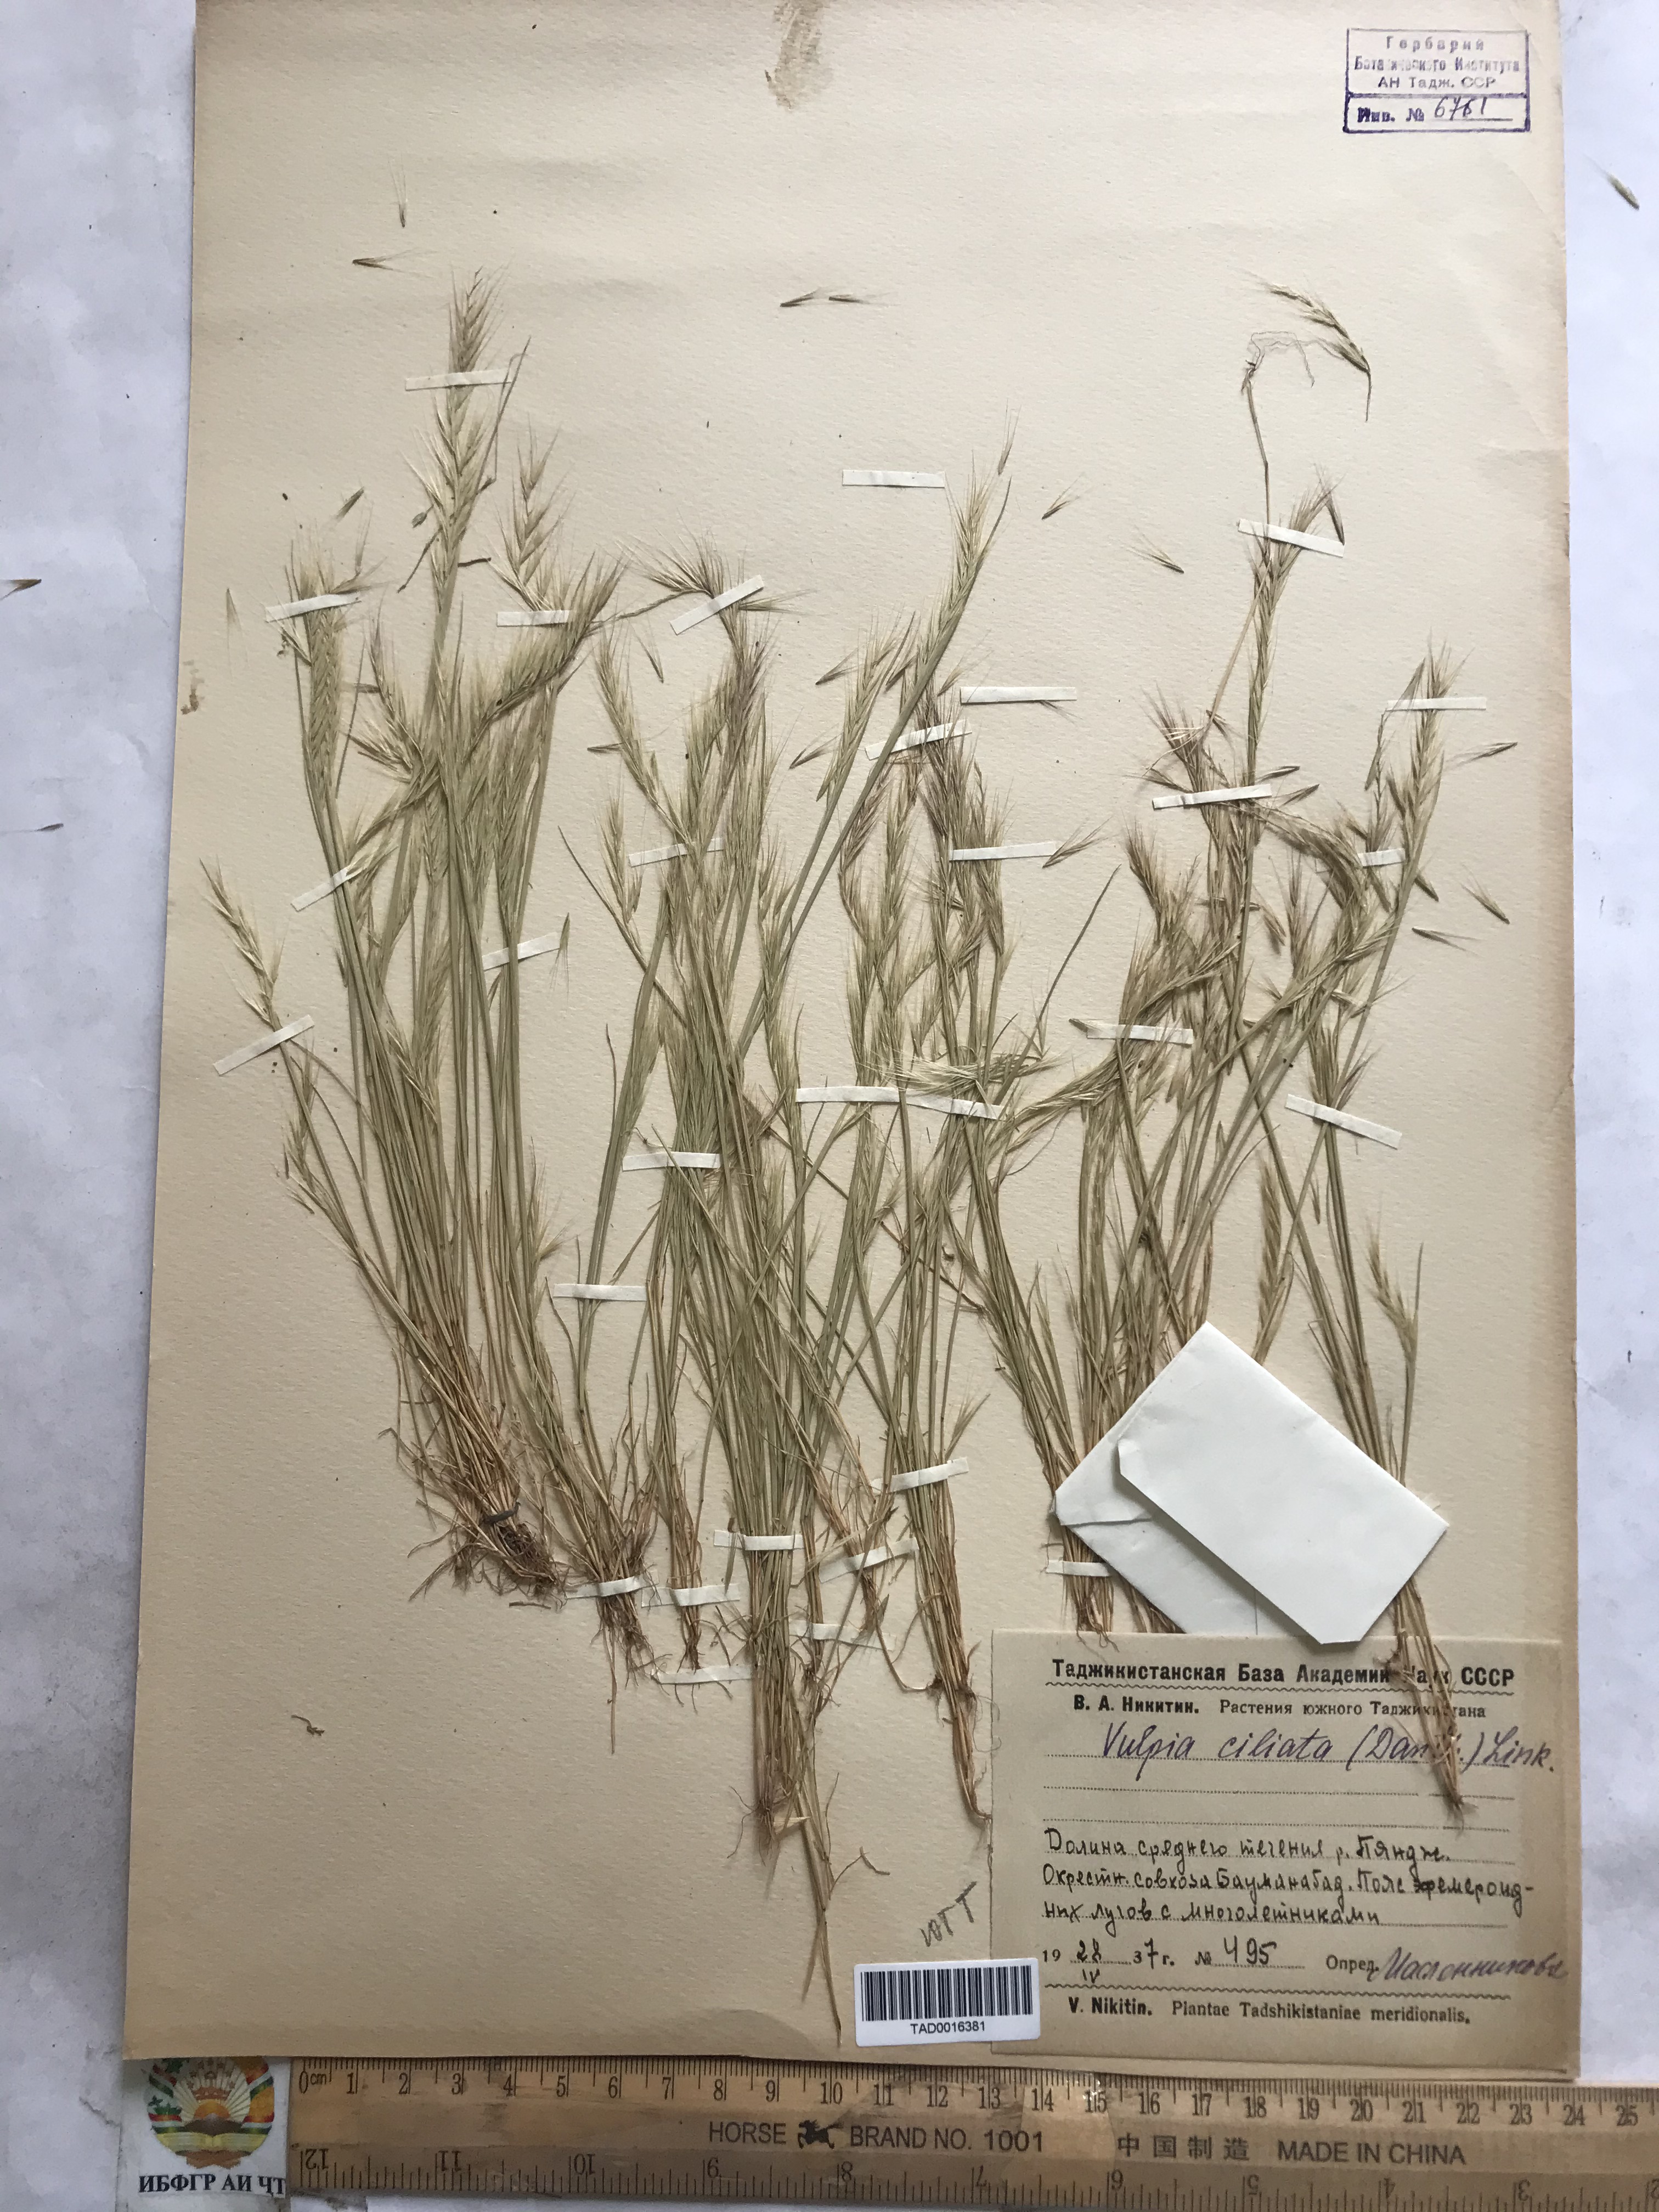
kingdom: Plantae
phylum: Tracheophyta
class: Liliopsida
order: Poales
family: Poaceae
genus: Festuca
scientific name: Festuca ambigua
